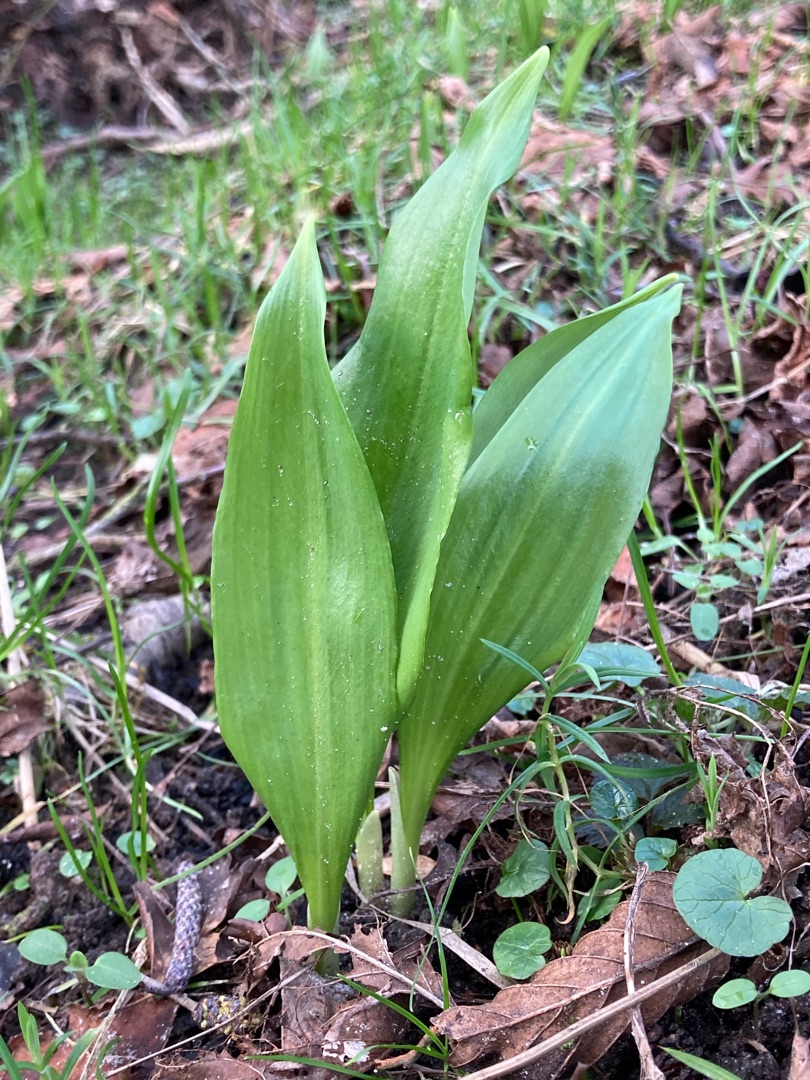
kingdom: Plantae
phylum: Tracheophyta
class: Liliopsida
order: Asparagales
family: Amaryllidaceae
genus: Allium
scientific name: Allium ursinum
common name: Rams-løg
